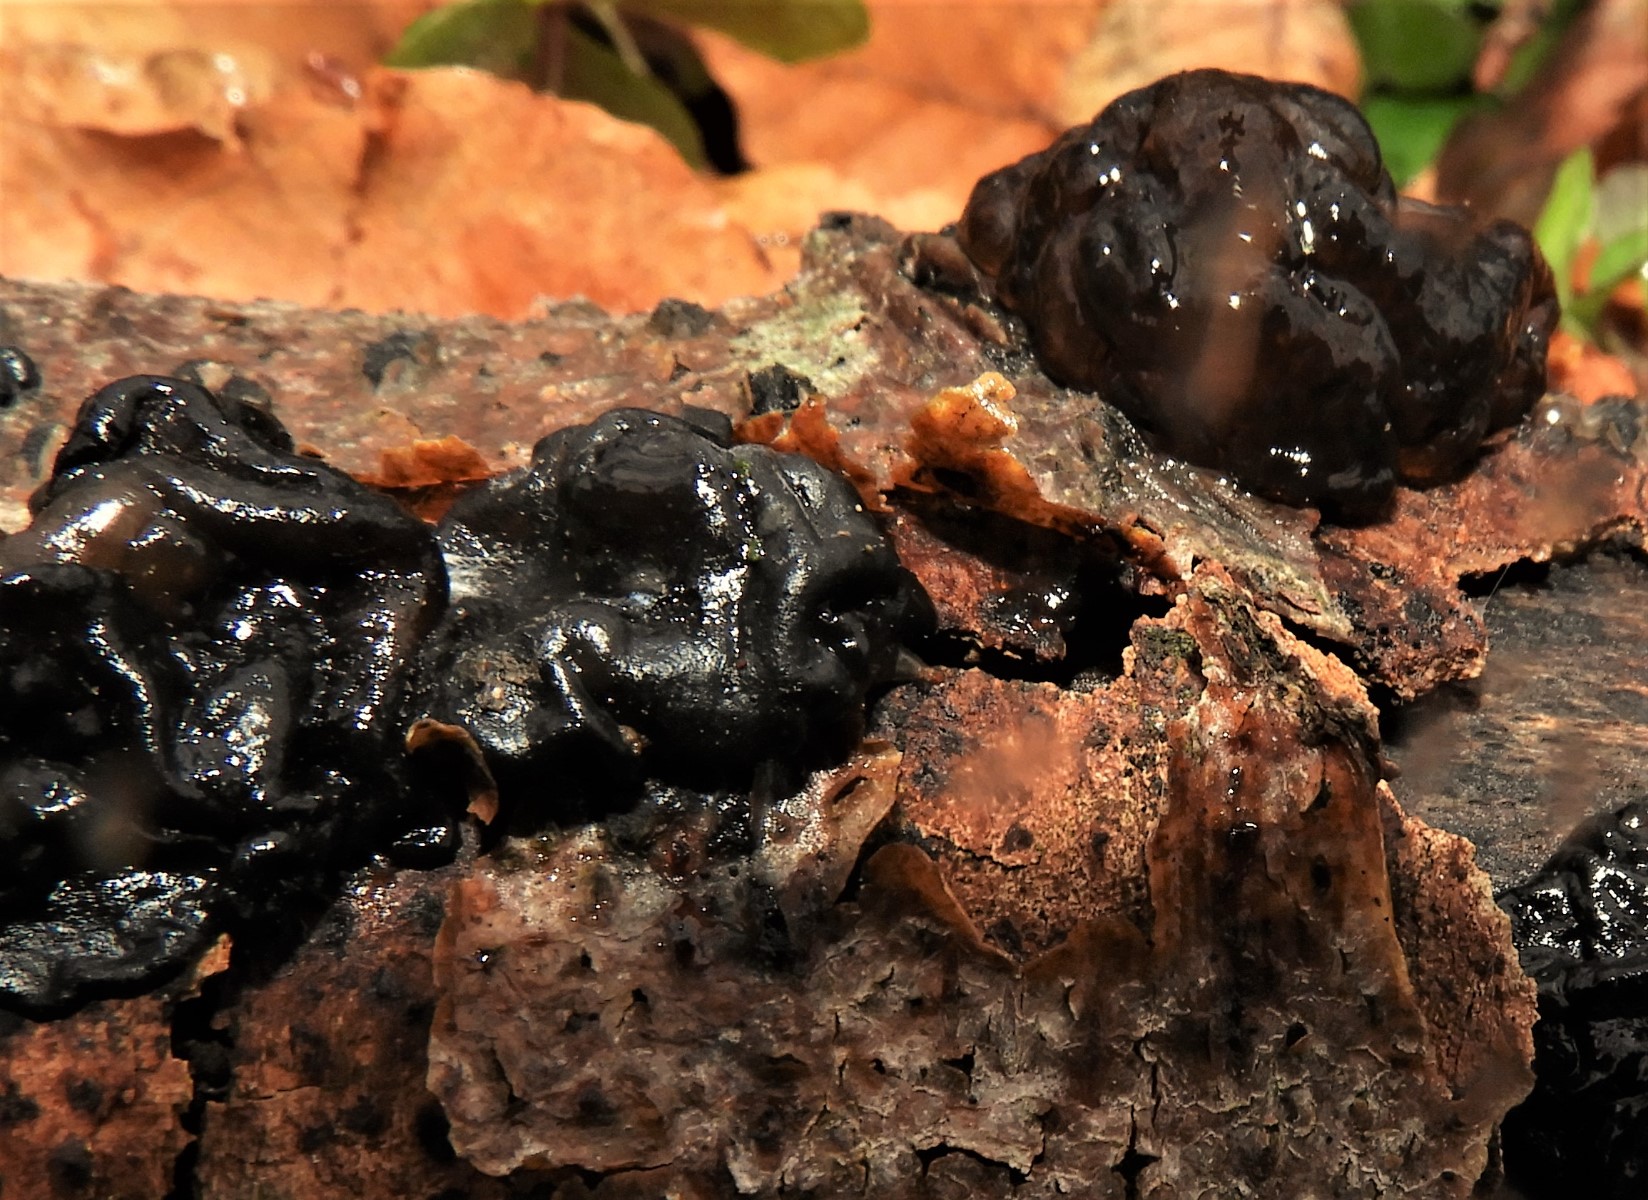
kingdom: Fungi
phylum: Basidiomycota
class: Agaricomycetes
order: Auriculariales
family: Auriculariaceae
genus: Exidia
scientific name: Exidia nigricans
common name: almindelig bævretop
